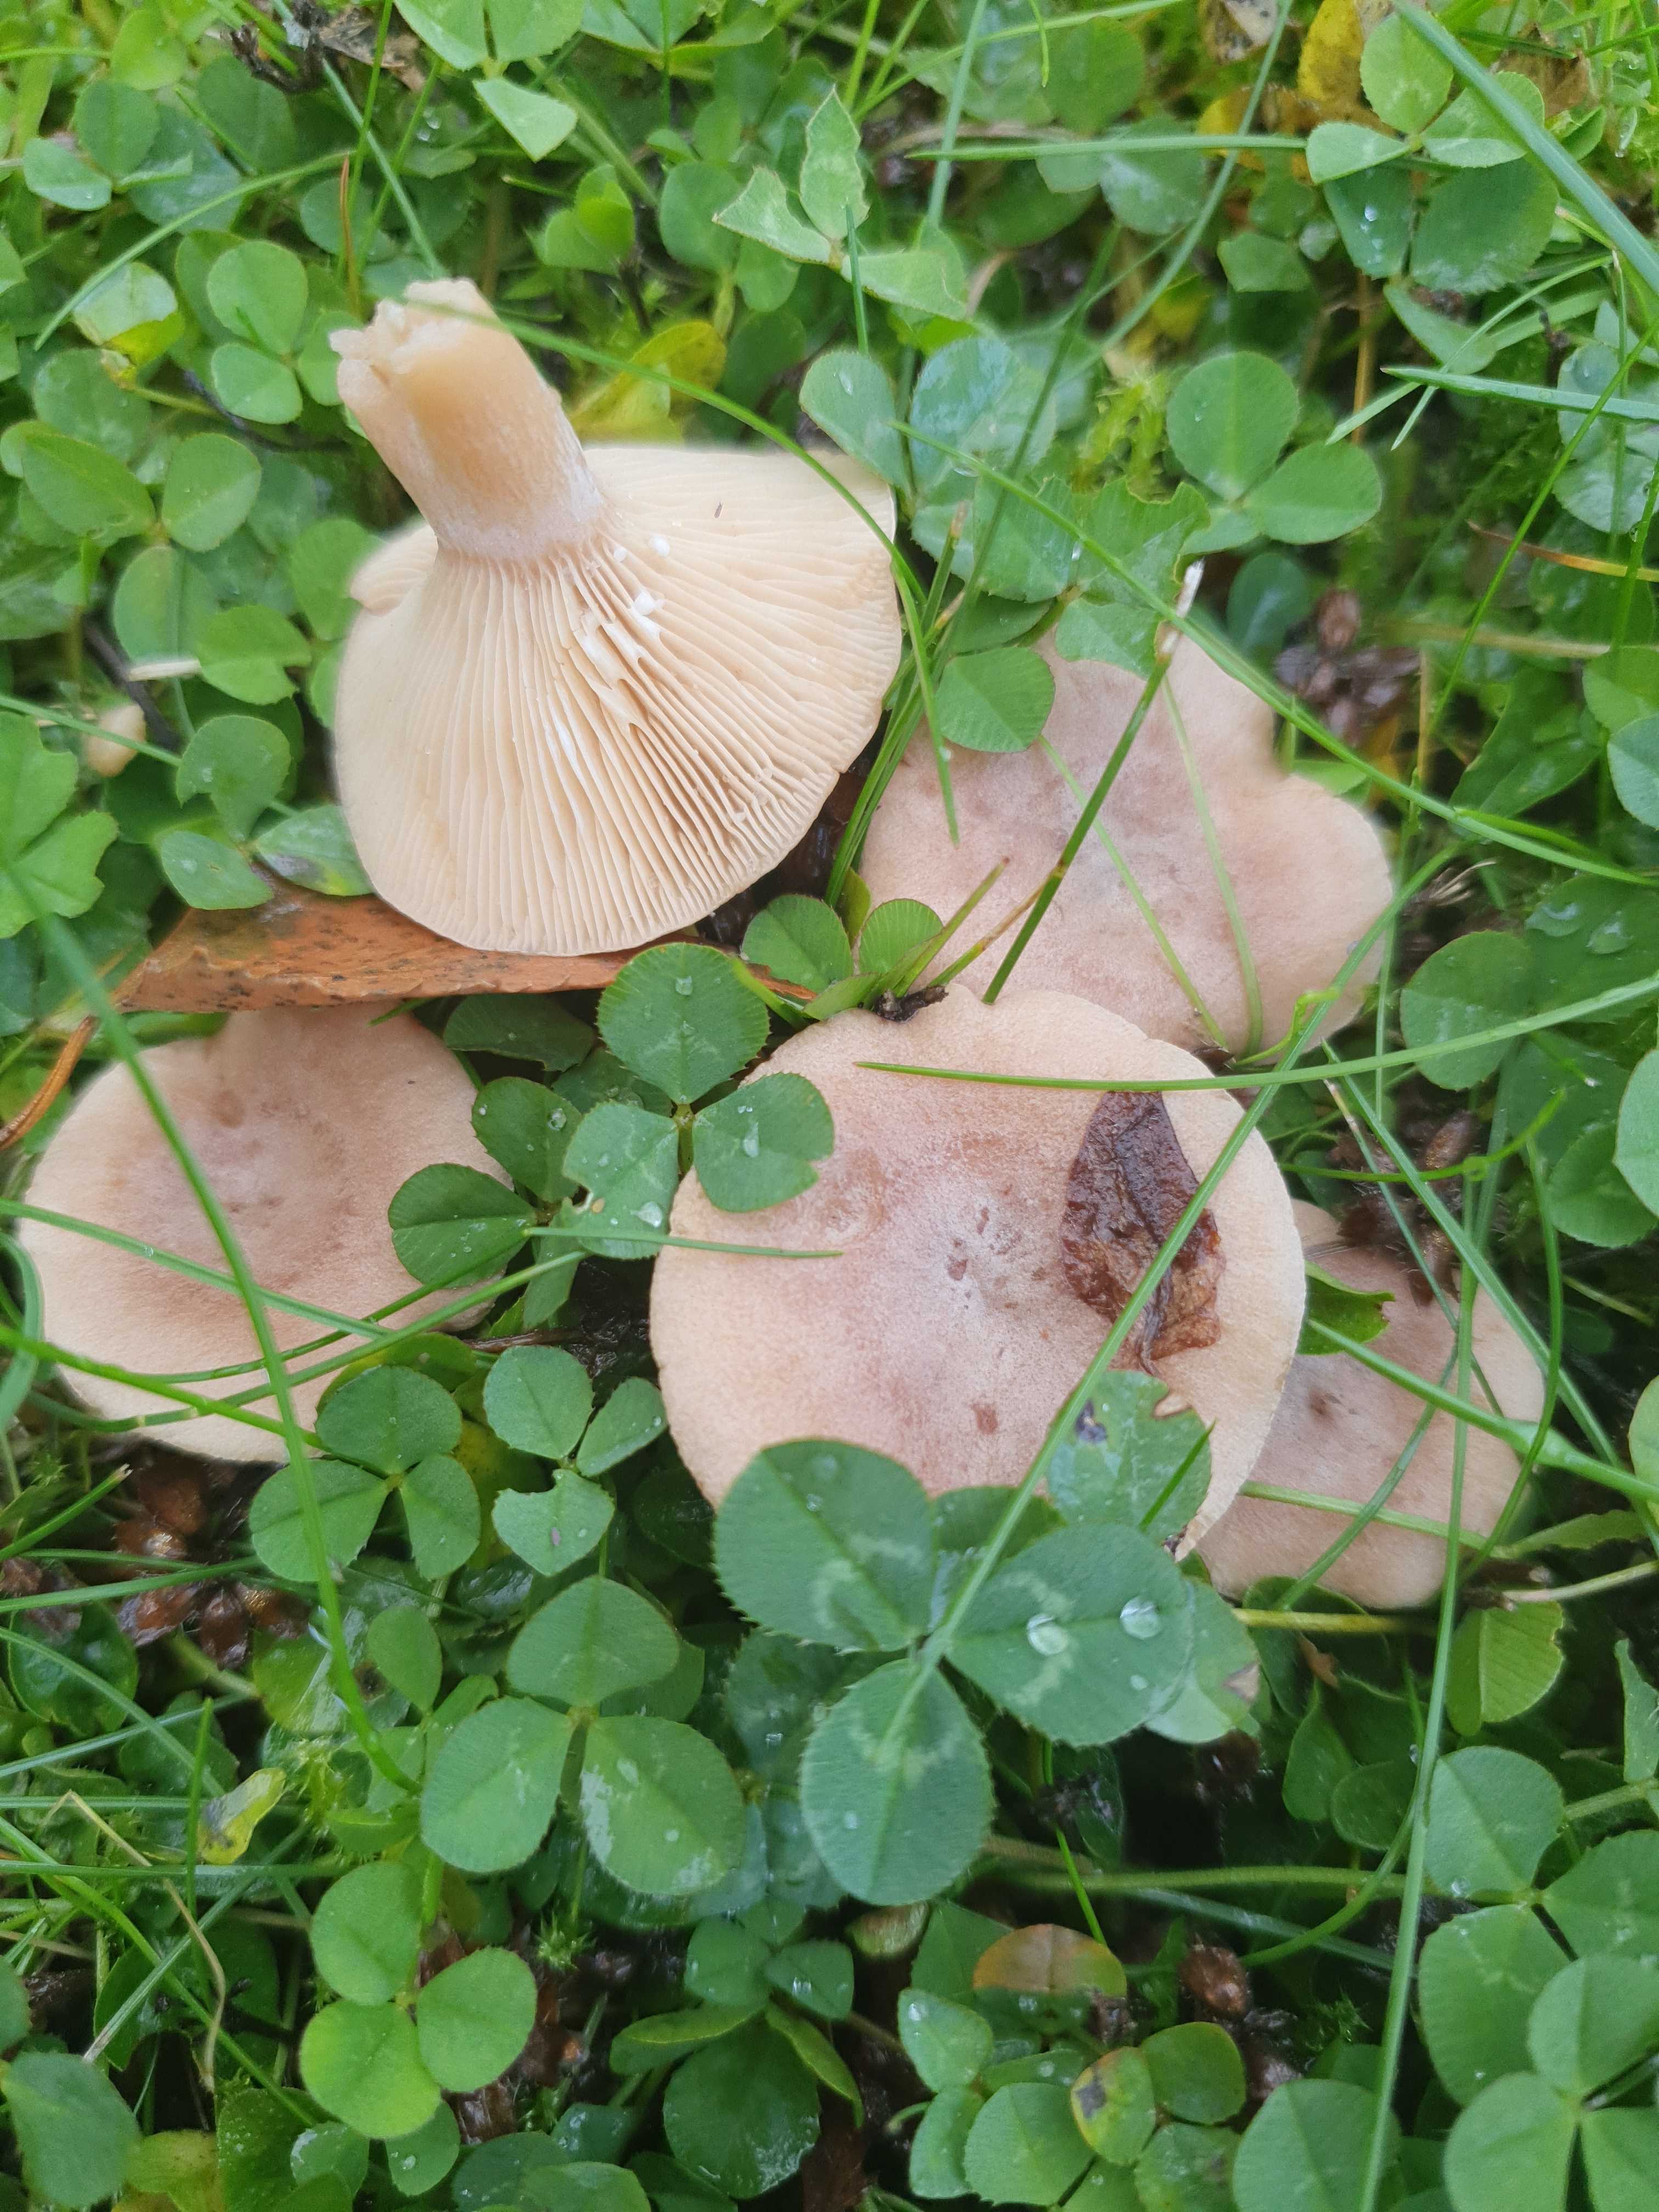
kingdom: Fungi
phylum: Basidiomycota
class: Agaricomycetes
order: Russulales
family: Russulaceae
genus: Lactarius
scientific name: Lactarius glyciosmus
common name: kokos-mælkehat
